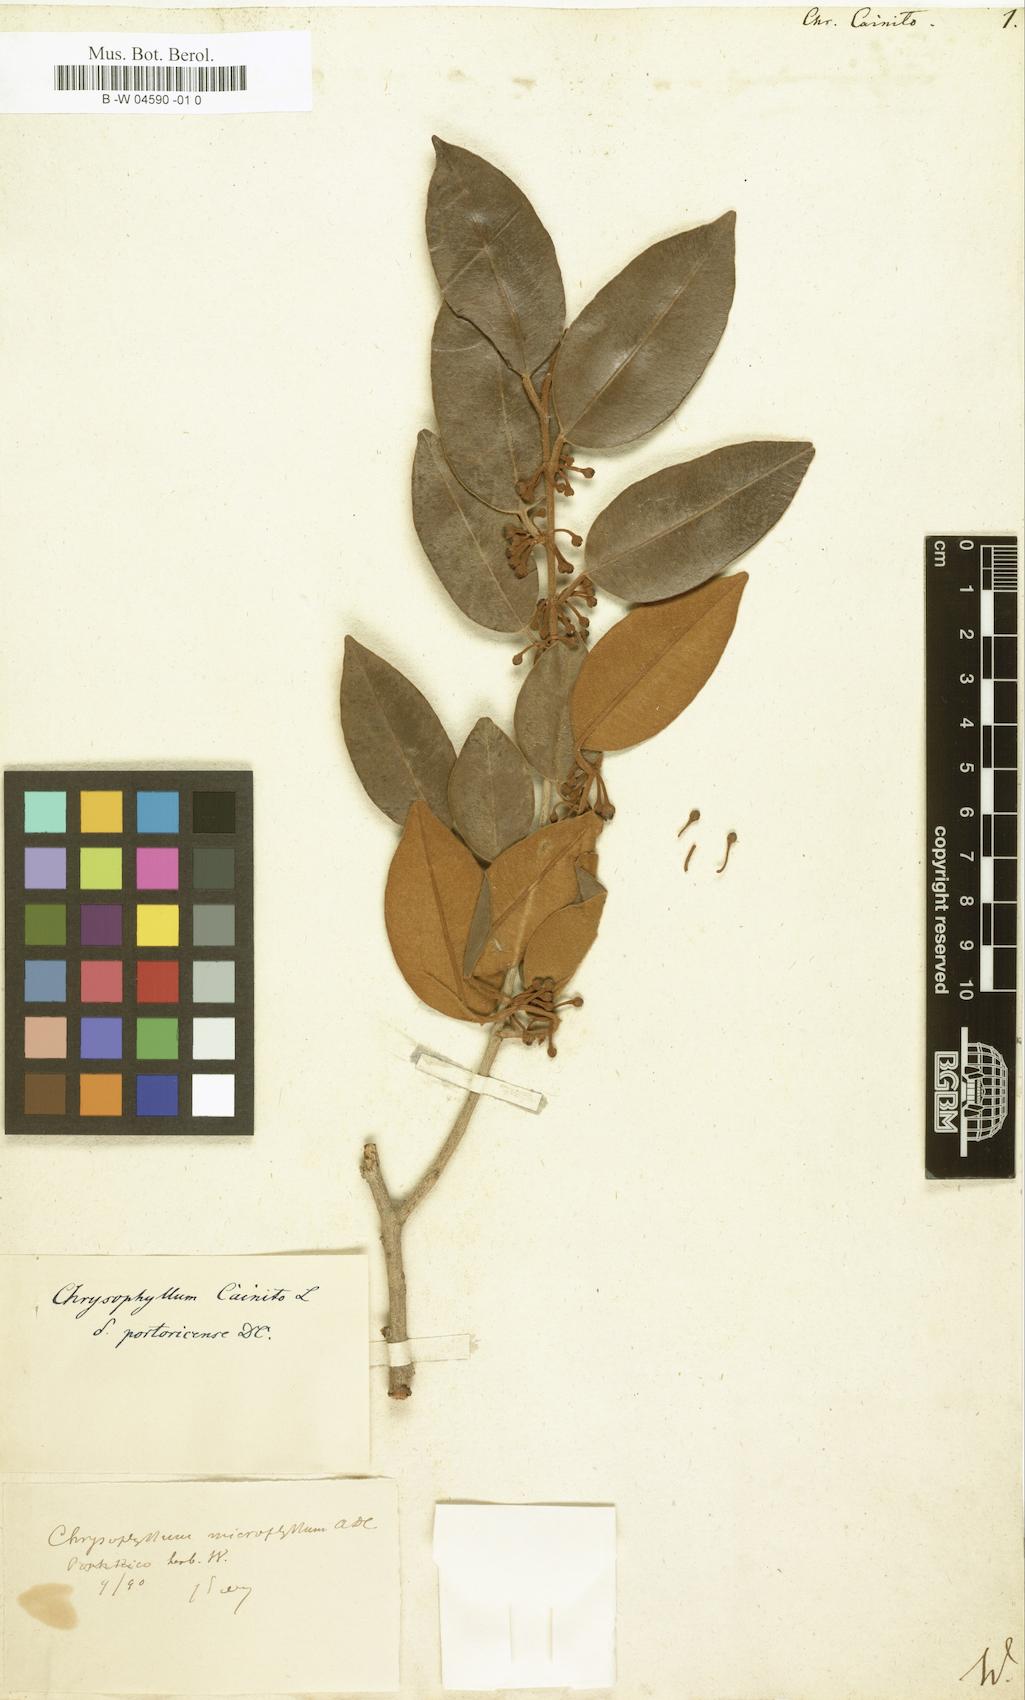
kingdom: Plantae
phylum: Tracheophyta
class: Magnoliopsida
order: Ericales
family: Sapotaceae
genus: Chrysophyllum
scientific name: Chrysophyllum cainito
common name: Star-apple
